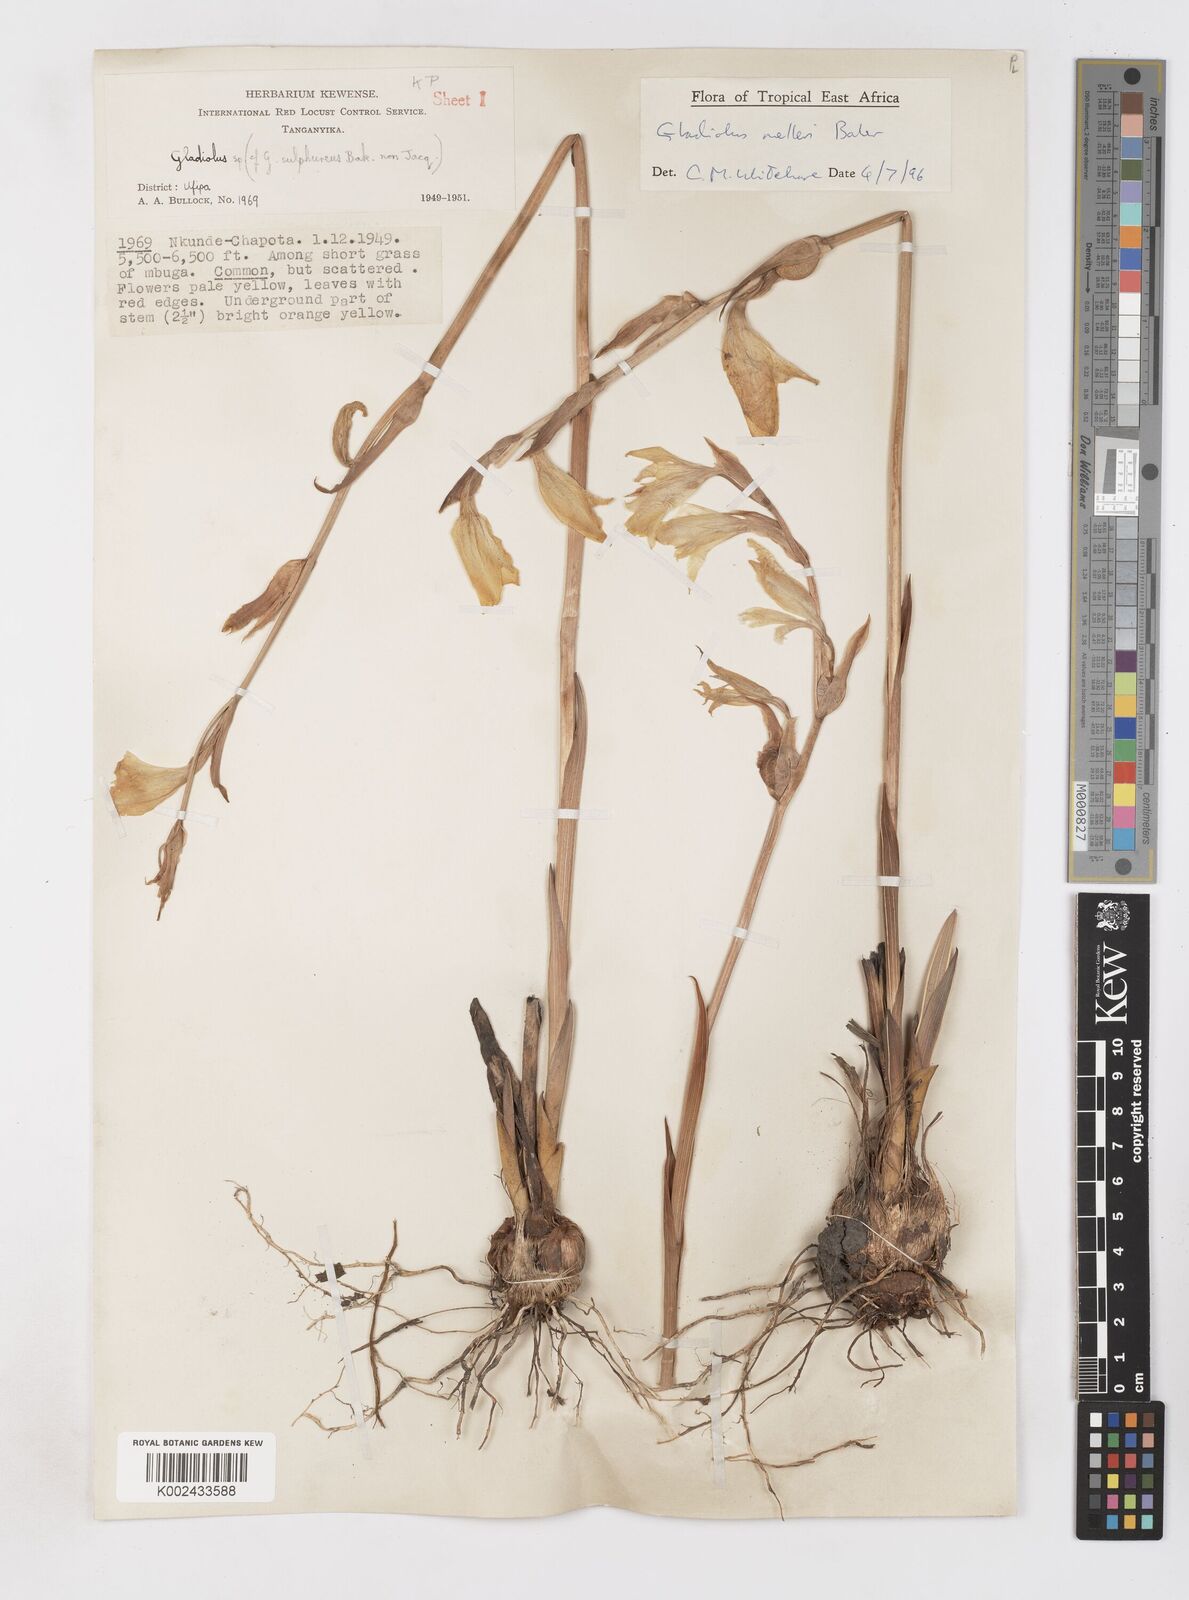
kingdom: Plantae
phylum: Tracheophyta
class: Liliopsida
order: Asparagales
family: Iridaceae
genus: Gladiolus
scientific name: Gladiolus melleri
